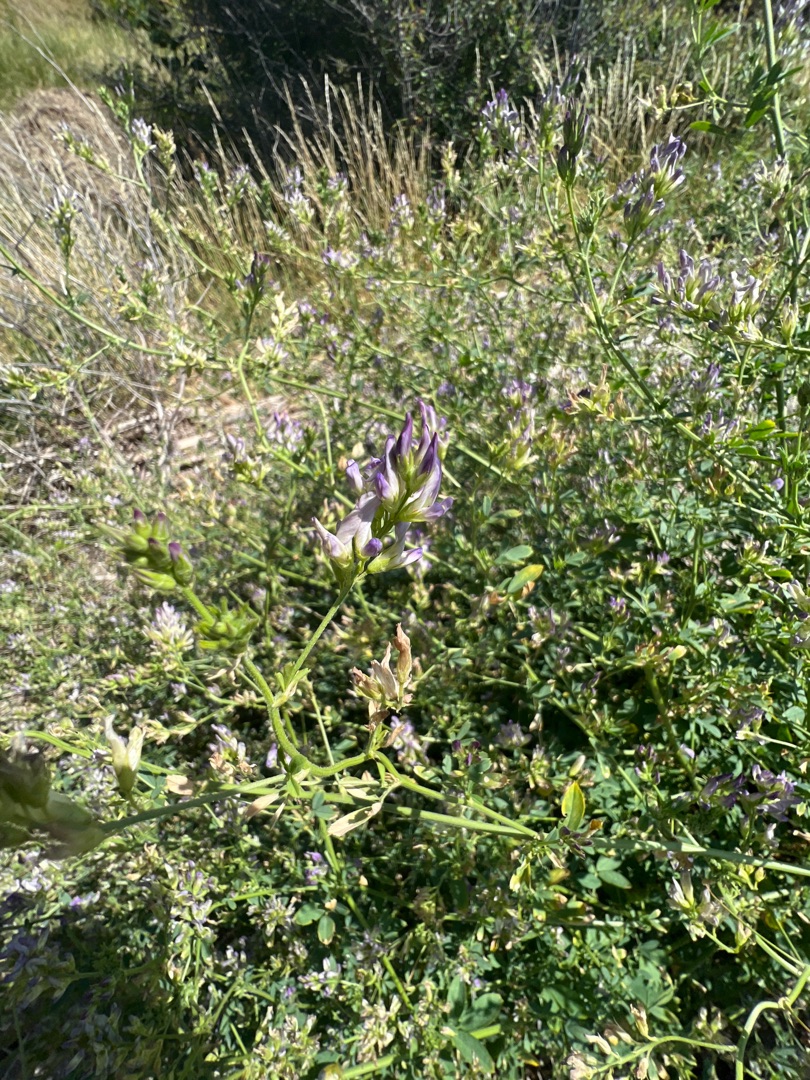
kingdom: Plantae
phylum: Tracheophyta
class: Magnoliopsida
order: Fabales
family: Fabaceae
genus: Medicago
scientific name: Medicago sativa
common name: Lucerne
